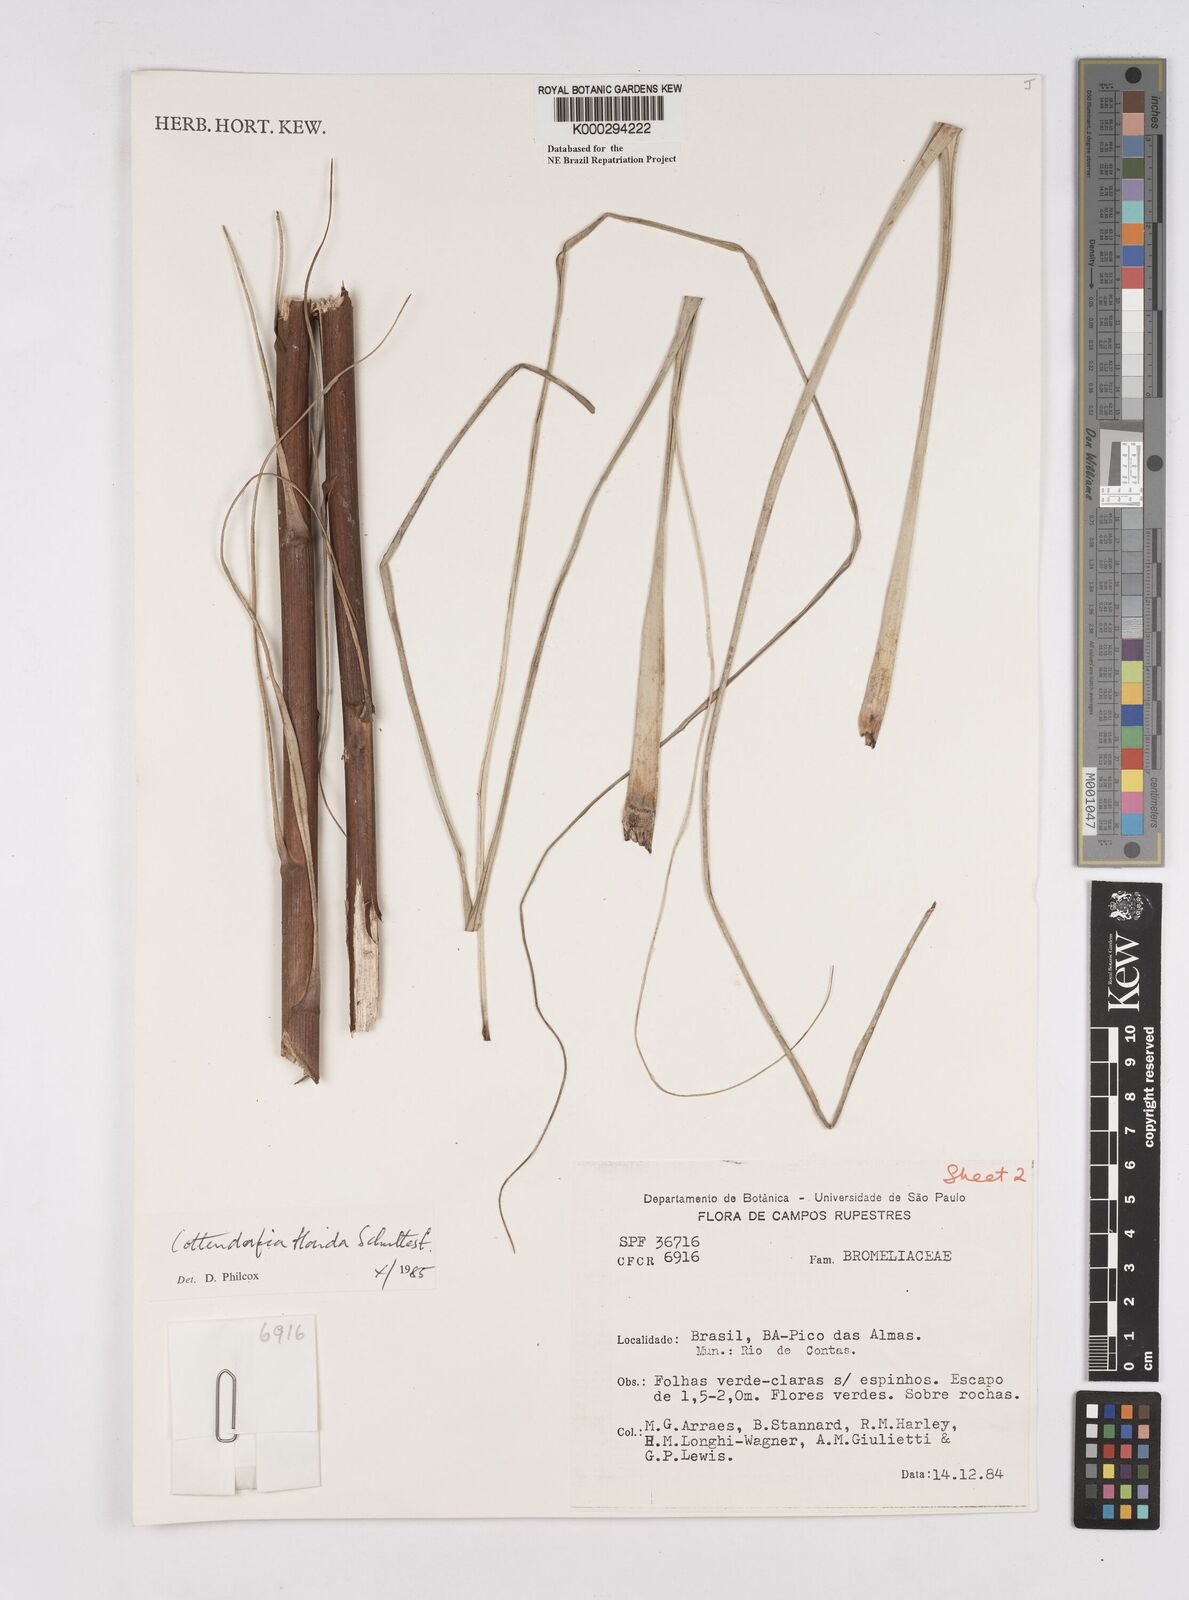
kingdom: Plantae
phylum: Tracheophyta
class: Liliopsida
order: Poales
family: Bromeliaceae
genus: Cottendorfia
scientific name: Cottendorfia florida
